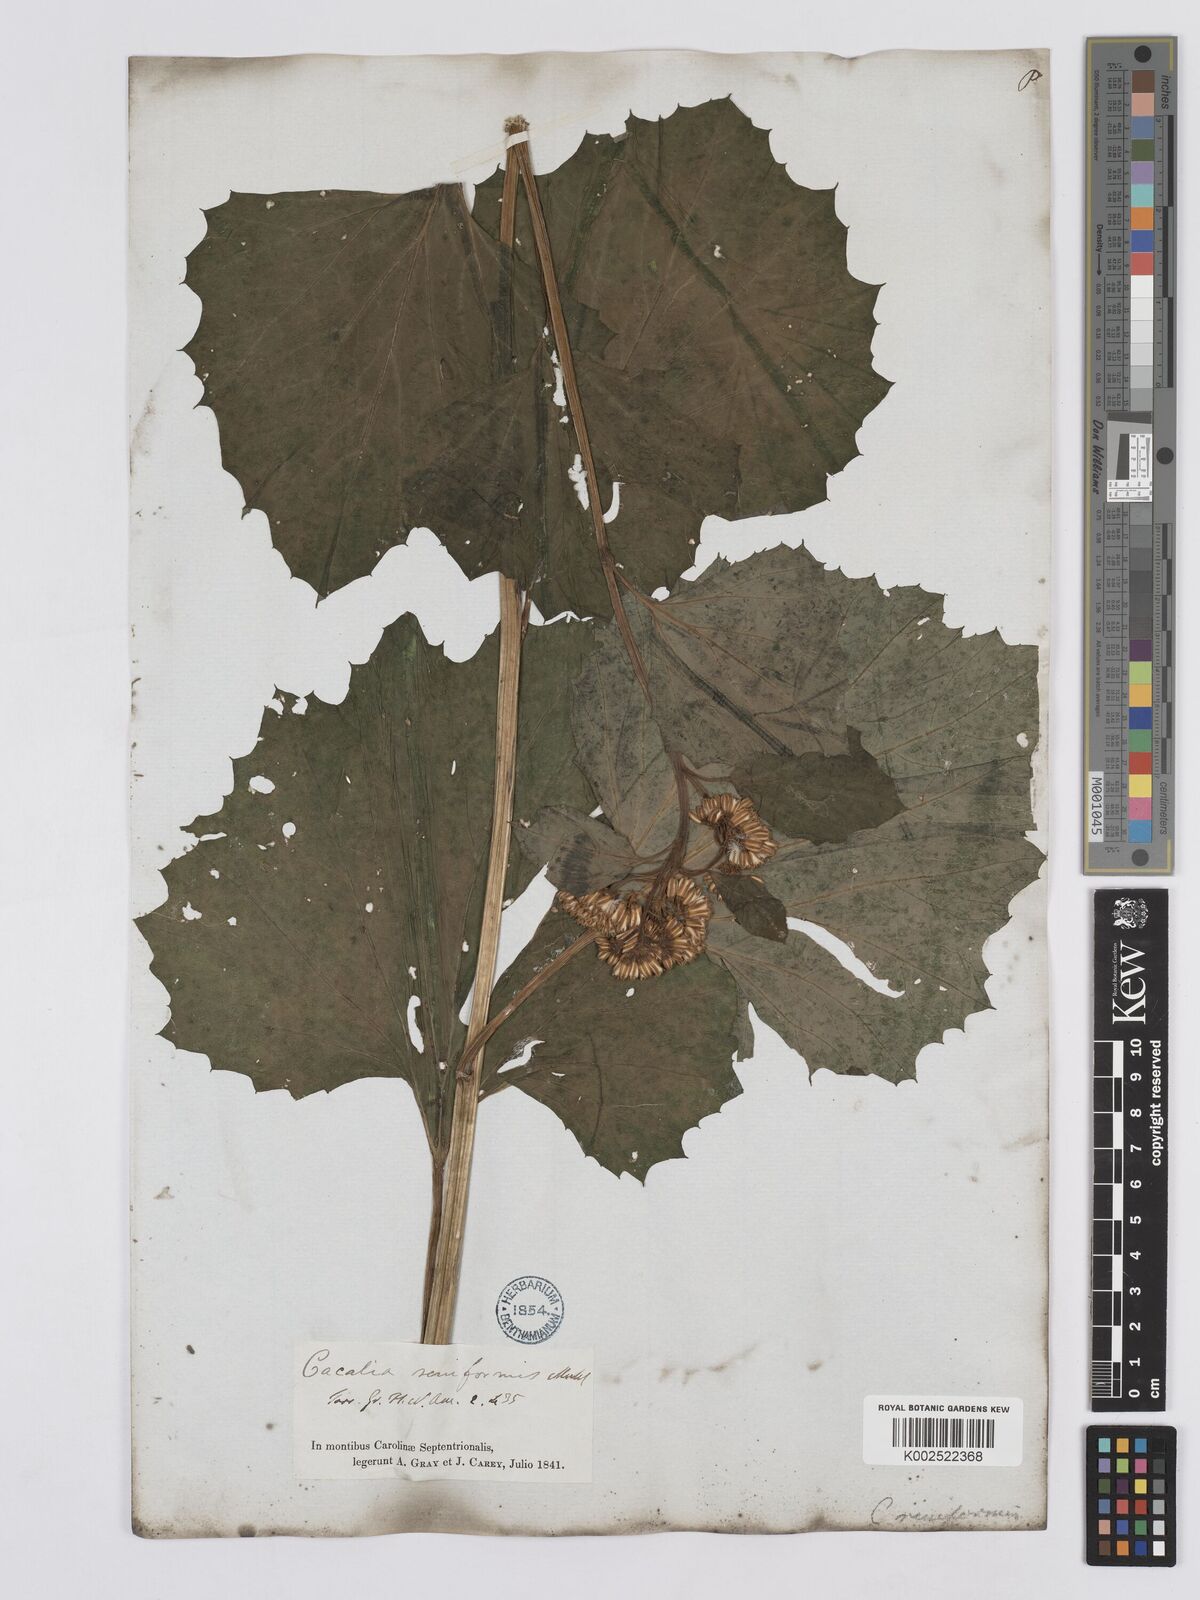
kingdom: Plantae
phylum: Tracheophyta
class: Magnoliopsida
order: Asterales
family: Asteraceae
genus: Arnoglossum
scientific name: Arnoglossum diversifolium
